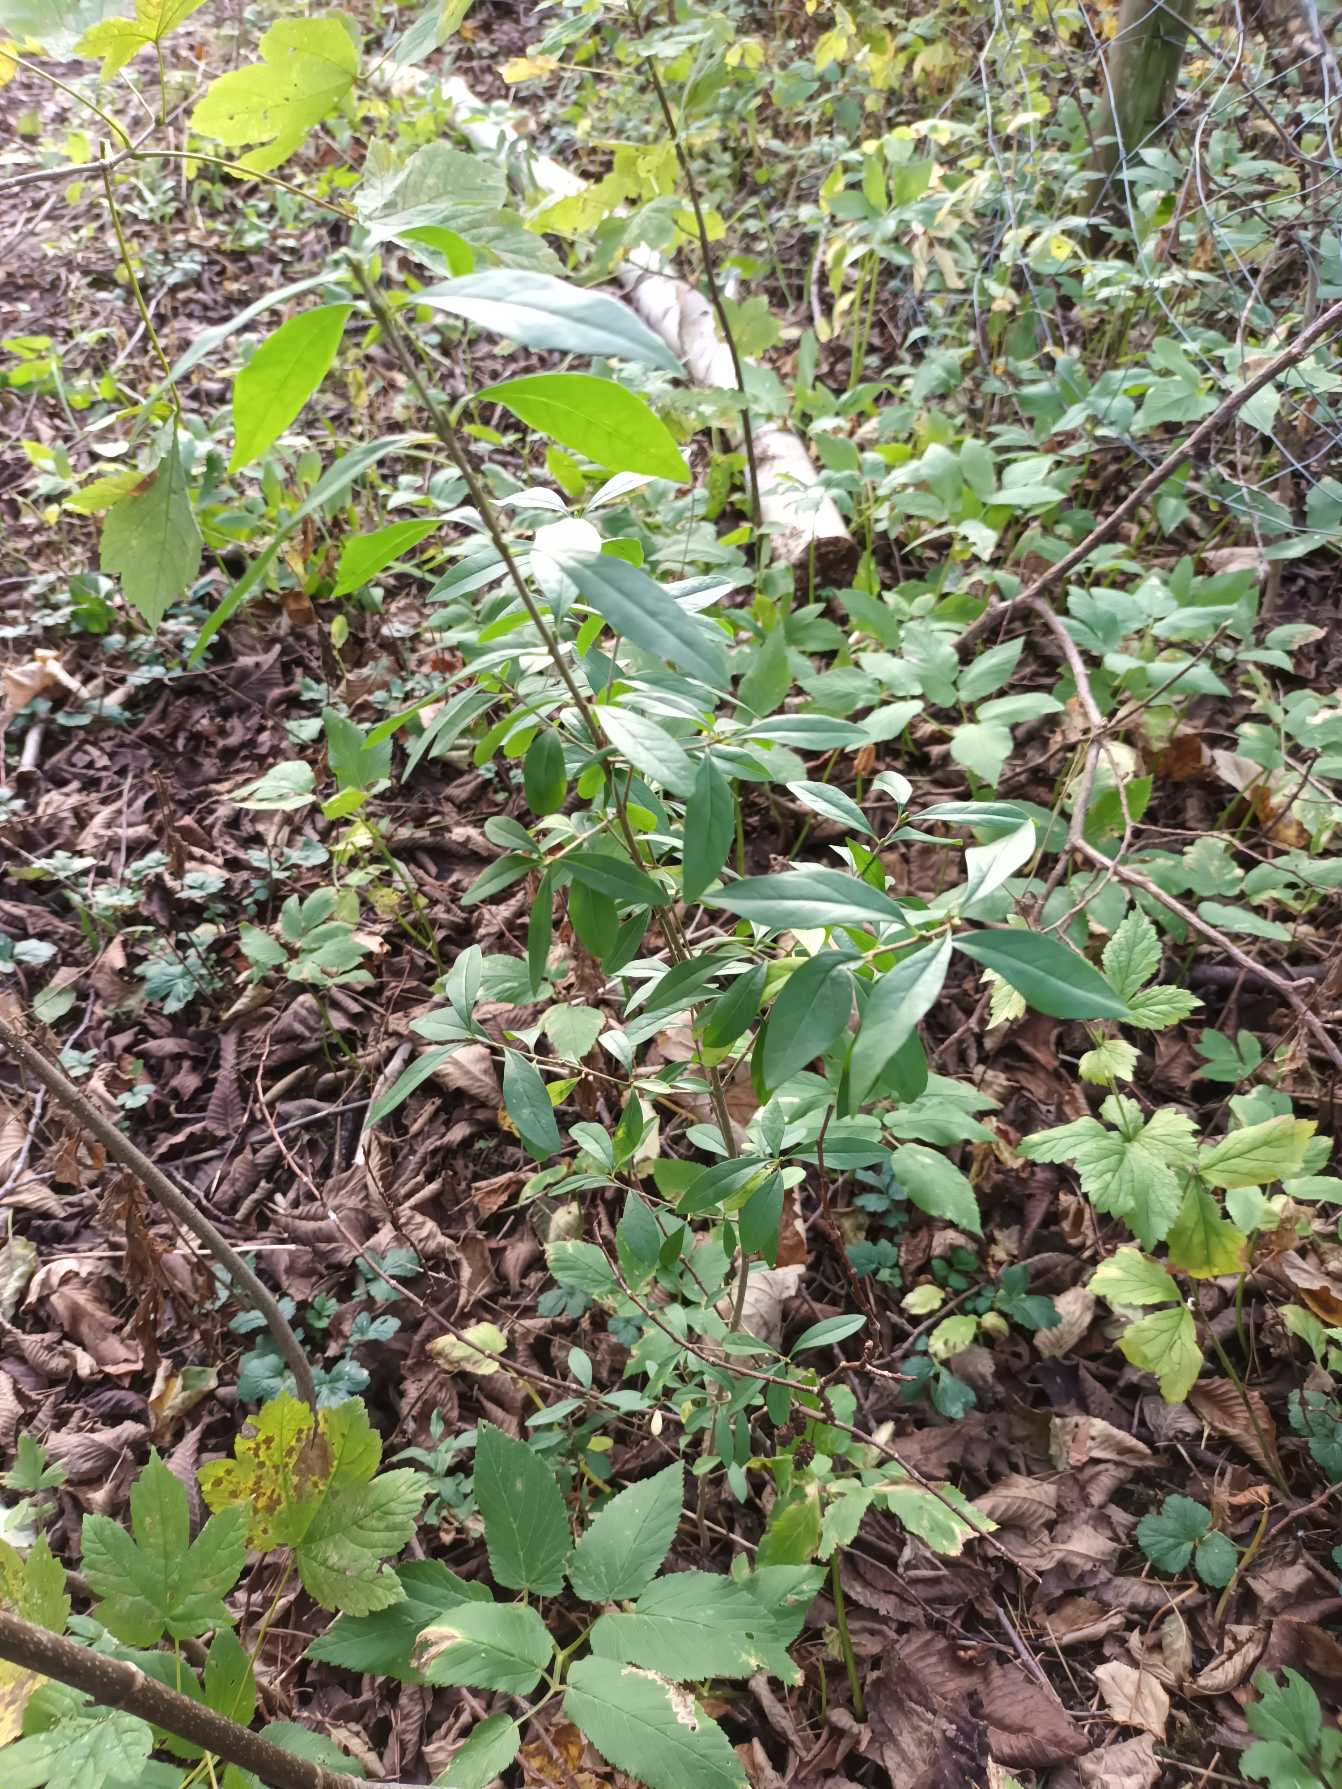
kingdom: Plantae
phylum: Tracheophyta
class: Magnoliopsida
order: Lamiales
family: Oleaceae
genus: Ligustrum
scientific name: Ligustrum vulgare
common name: Liguster
